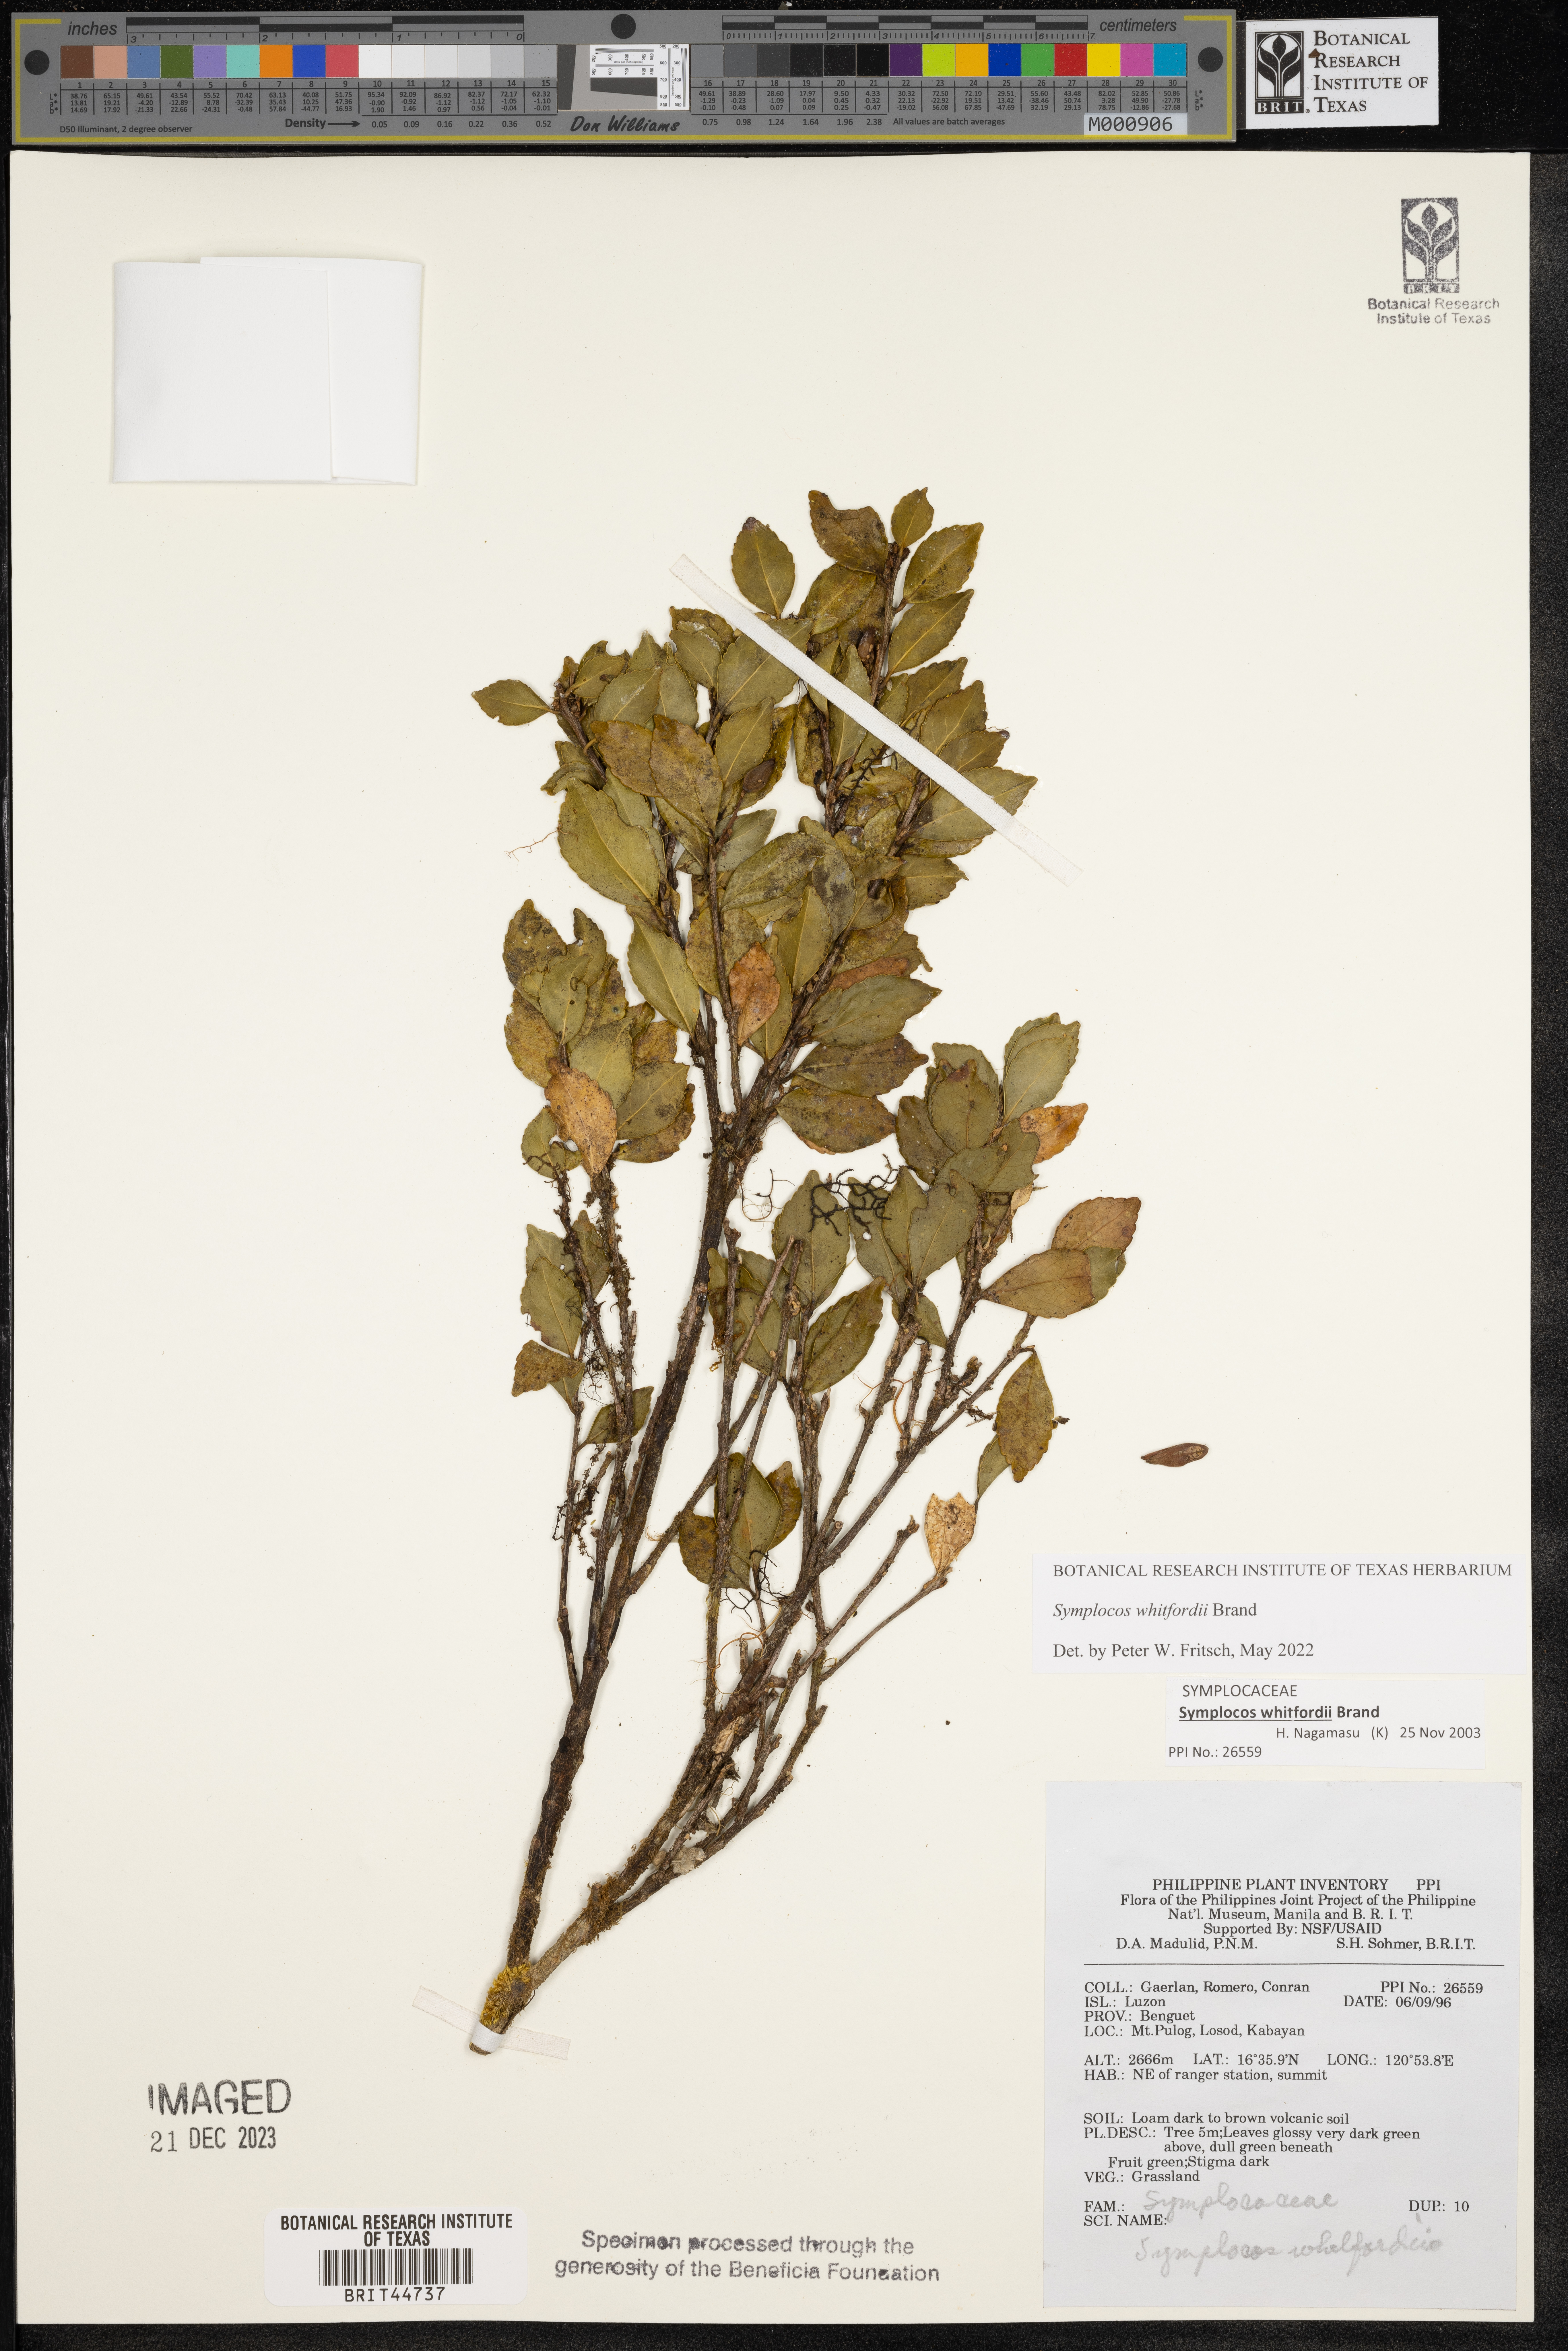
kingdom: Plantae
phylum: Tracheophyta
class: Magnoliopsida
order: Ericales
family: Symplocaceae
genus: Symplocos
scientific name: Symplocos whitfordii
